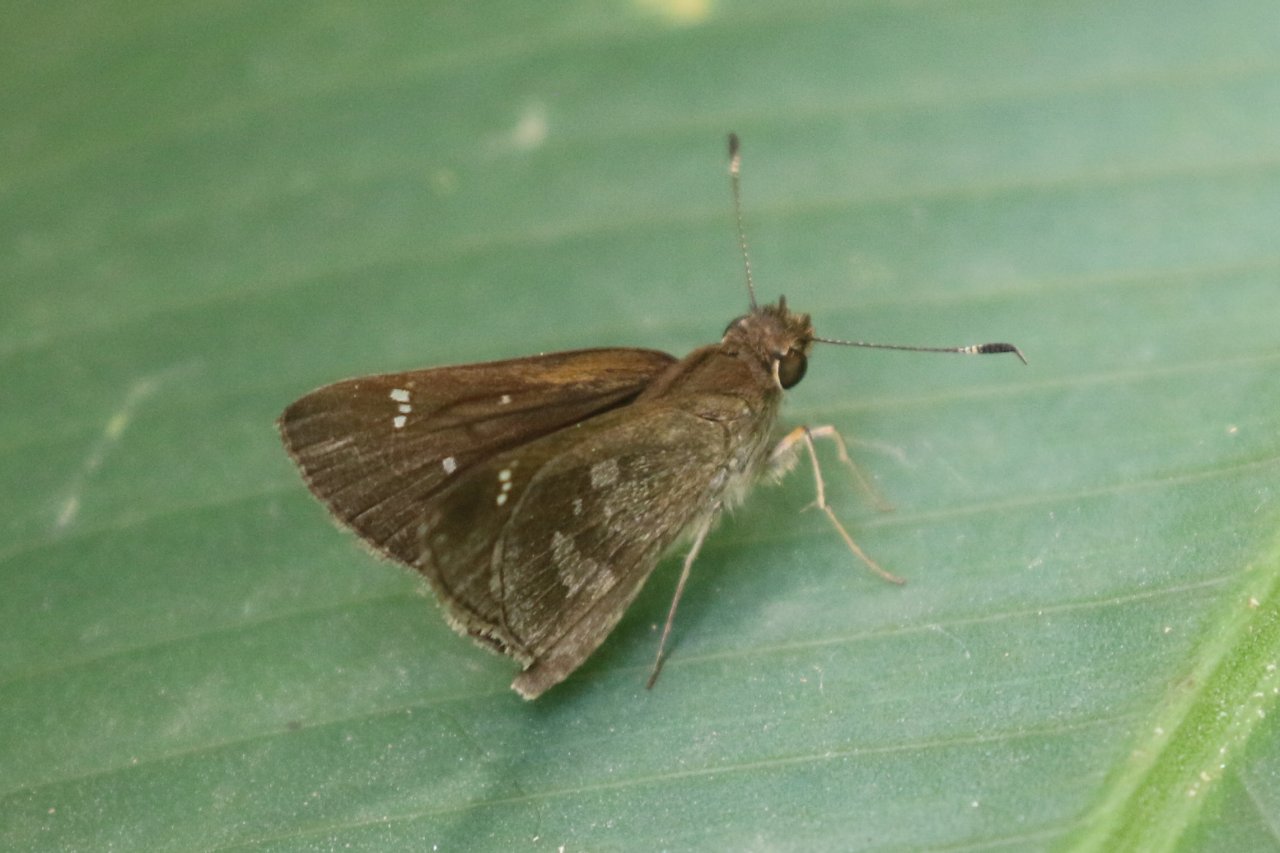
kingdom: Animalia
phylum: Arthropoda
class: Insecta
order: Lepidoptera
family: Hesperiidae
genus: Cymaenes
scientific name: Cymaenes odilia
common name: Fawn-spotted Skipper
